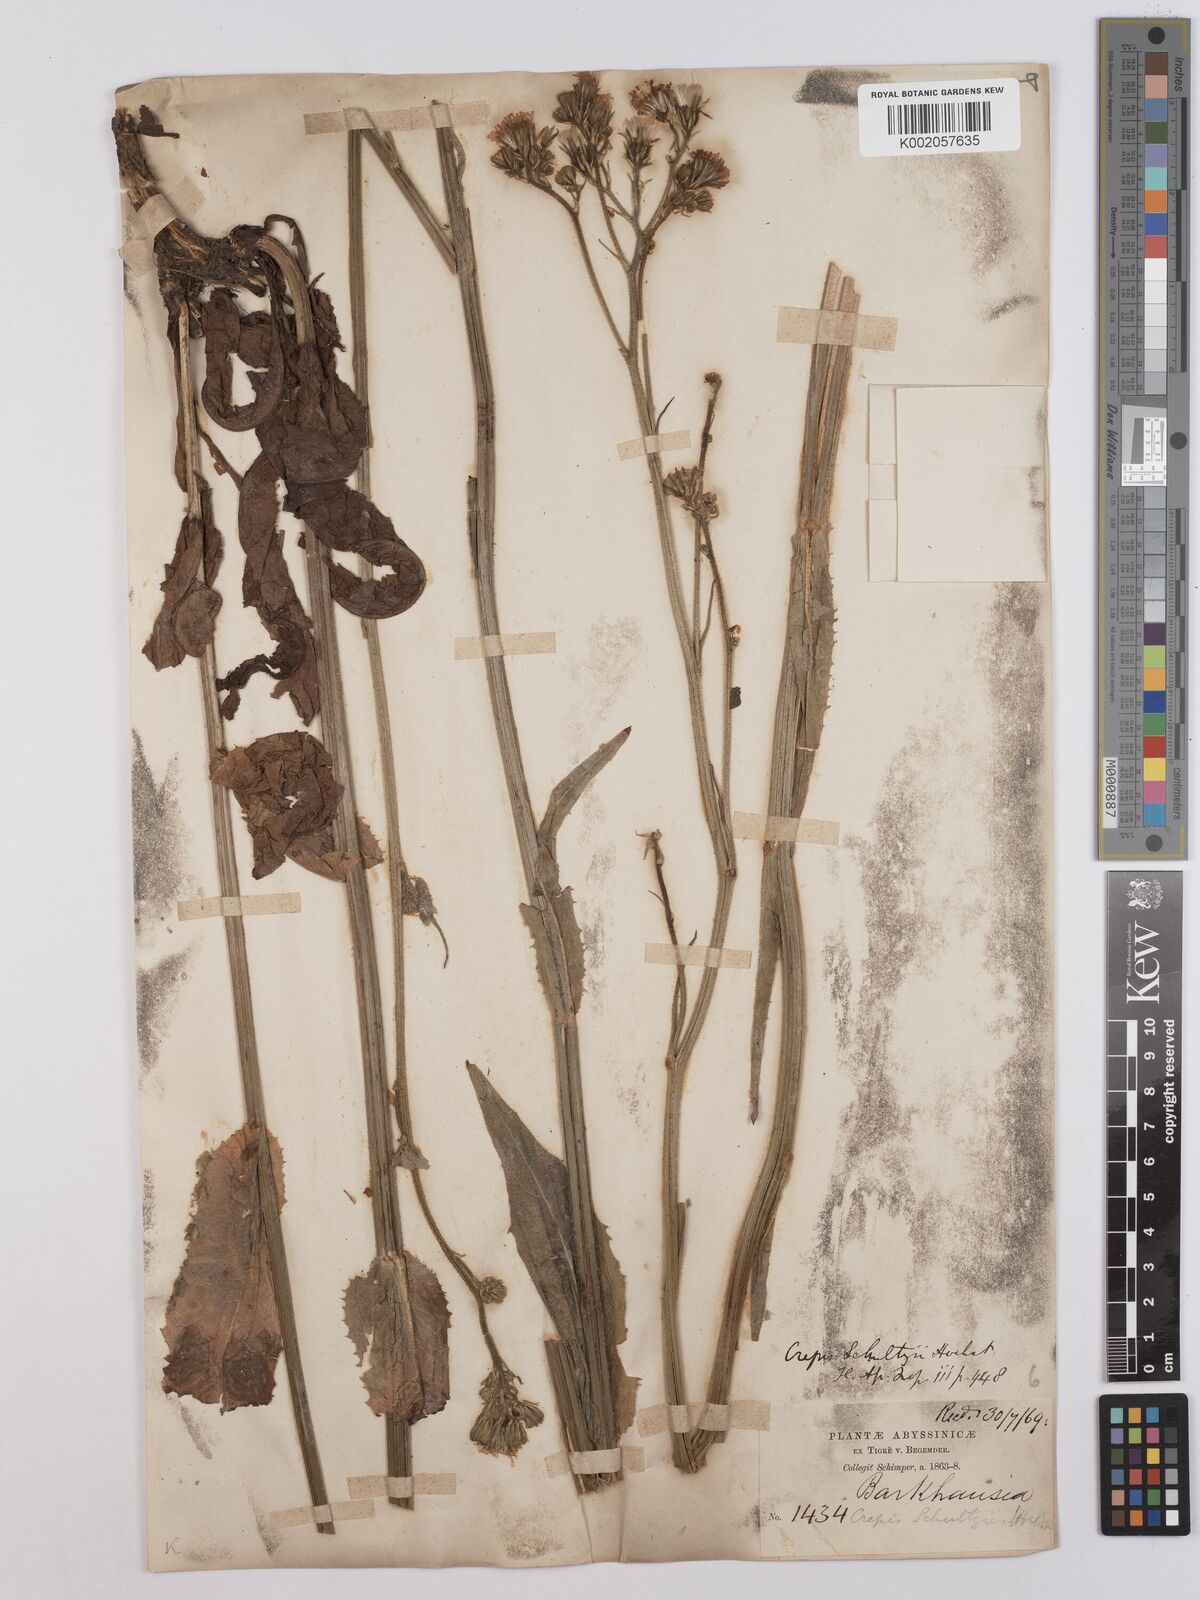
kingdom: Plantae
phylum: Tracheophyta
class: Magnoliopsida
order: Asterales
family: Asteraceae
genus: Crepis
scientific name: Crepis schultzii
